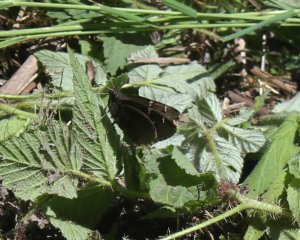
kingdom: Animalia
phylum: Arthropoda
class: Insecta
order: Lepidoptera
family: Hesperiidae
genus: Autochton
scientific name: Autochton
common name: Northern Cloudywing
